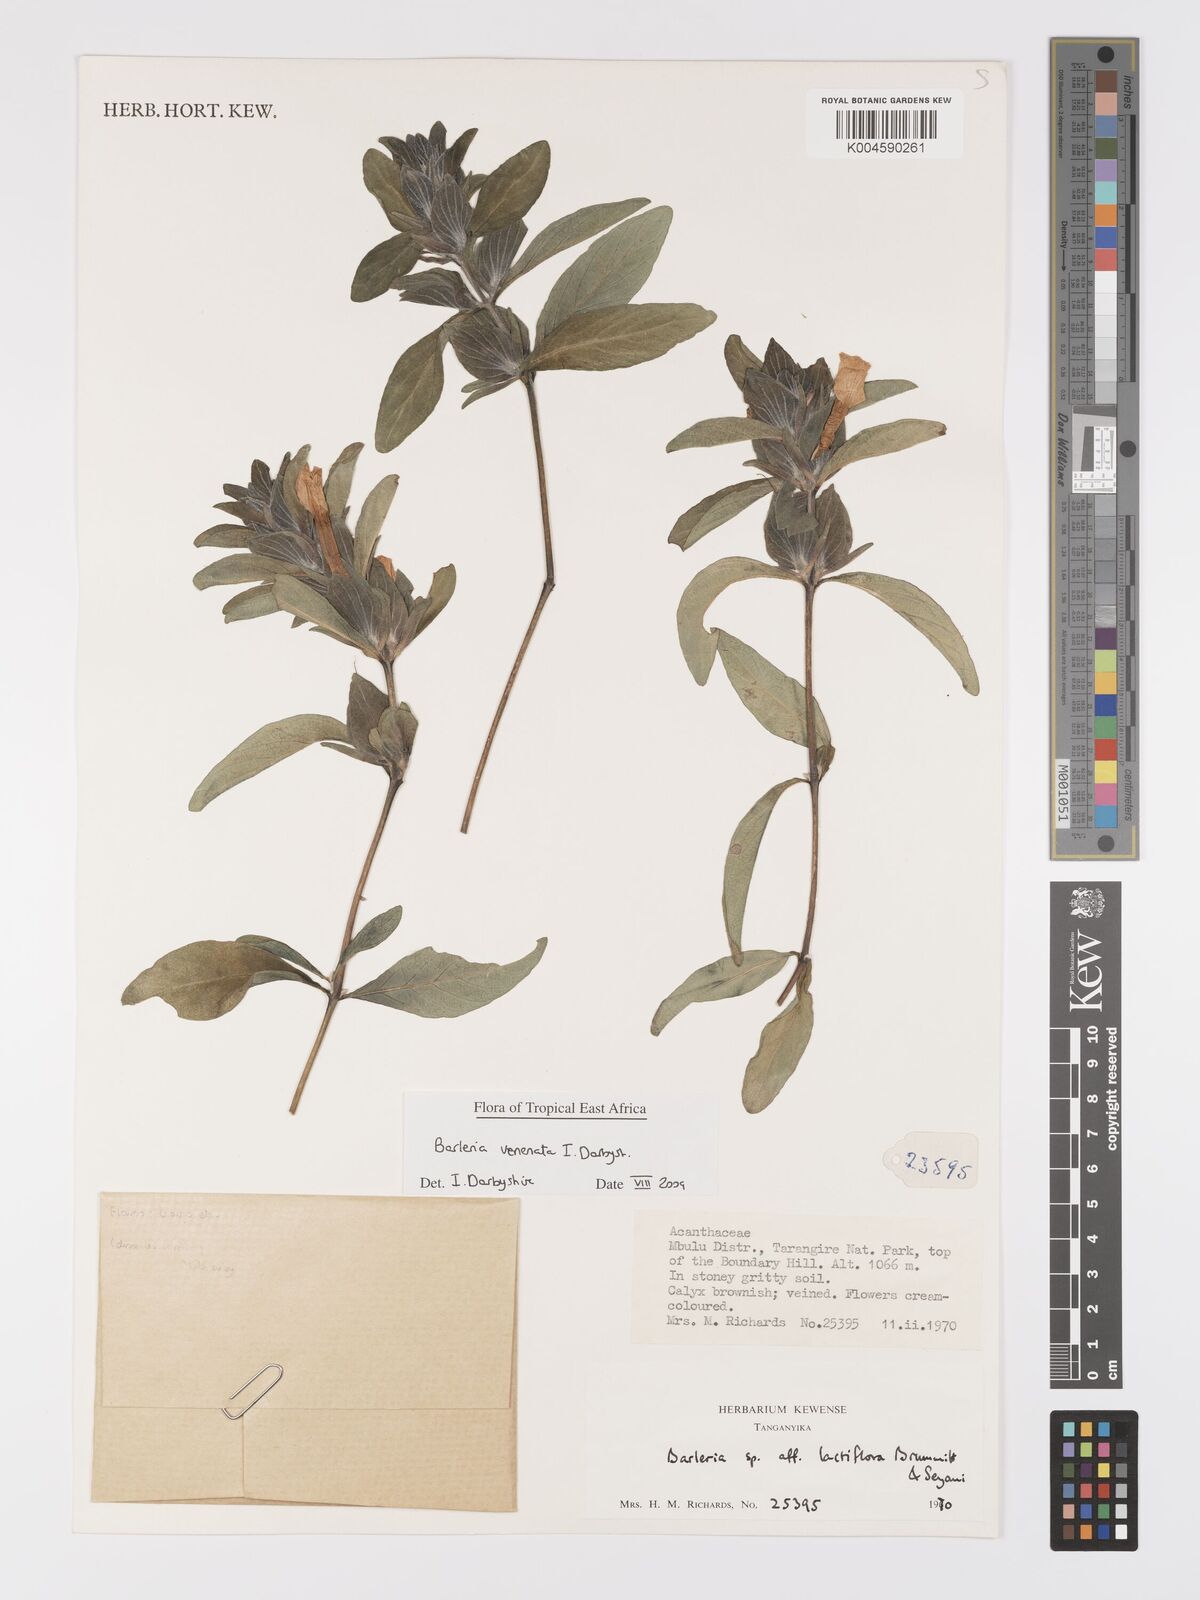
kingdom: Plantae
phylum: Tracheophyta
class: Magnoliopsida
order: Lamiales
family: Acanthaceae
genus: Barleria
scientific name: Barleria venenata
